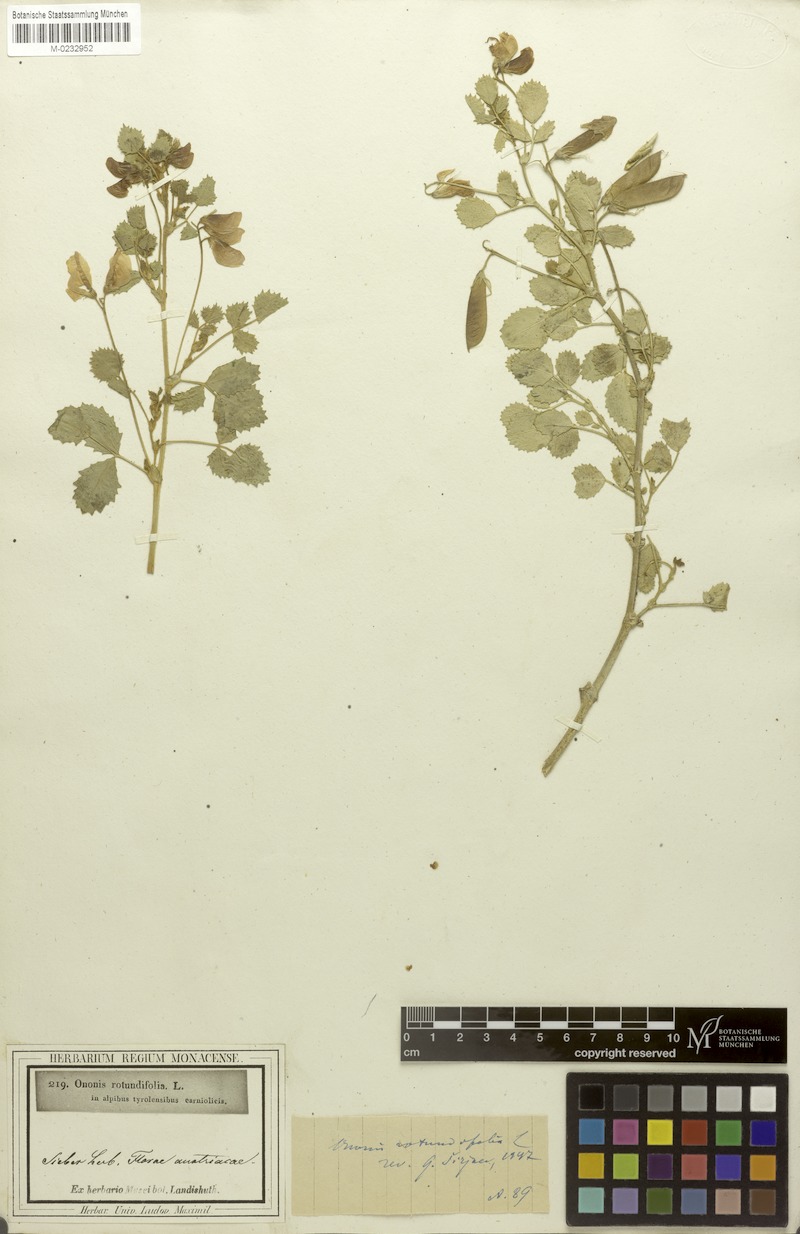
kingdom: Plantae
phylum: Tracheophyta
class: Magnoliopsida
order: Fabales
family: Fabaceae
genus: Ononis
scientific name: Ononis rotundifolia
